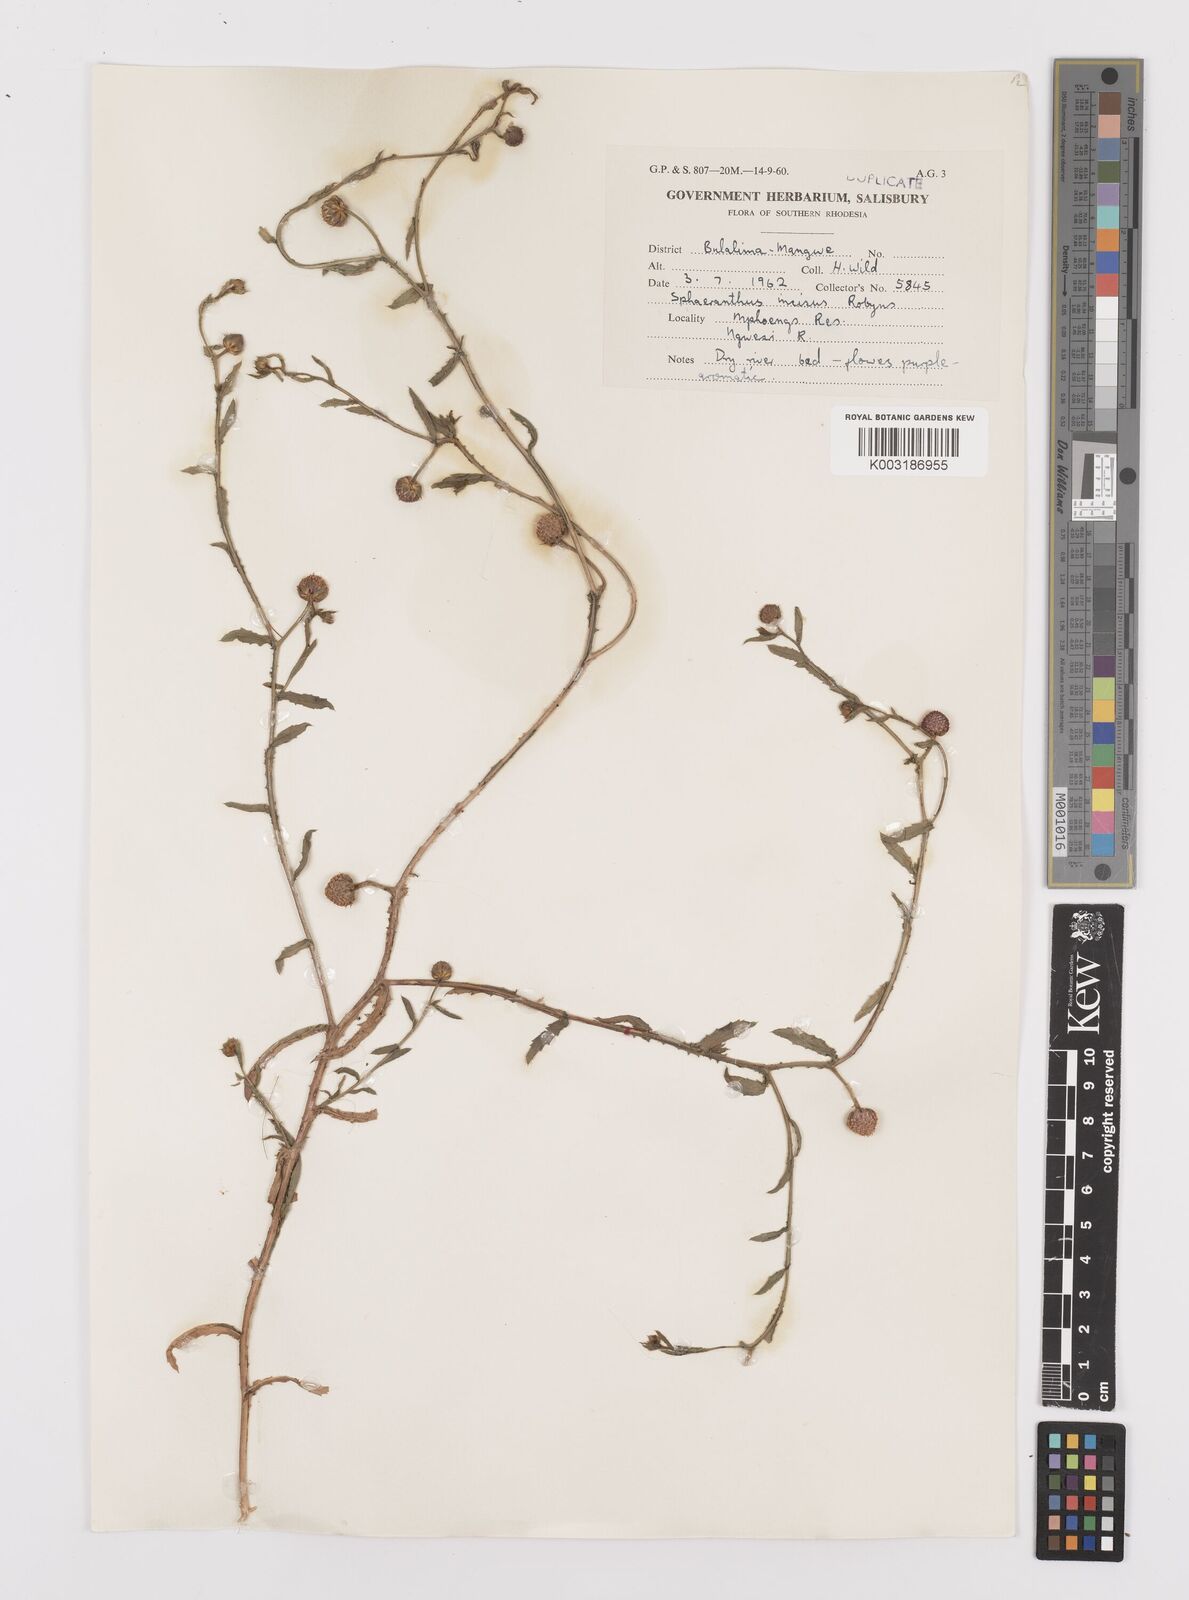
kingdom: Plantae
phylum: Tracheophyta
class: Magnoliopsida
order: Asterales
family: Asteraceae
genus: Sphaeranthus
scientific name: Sphaeranthus peduncularis
